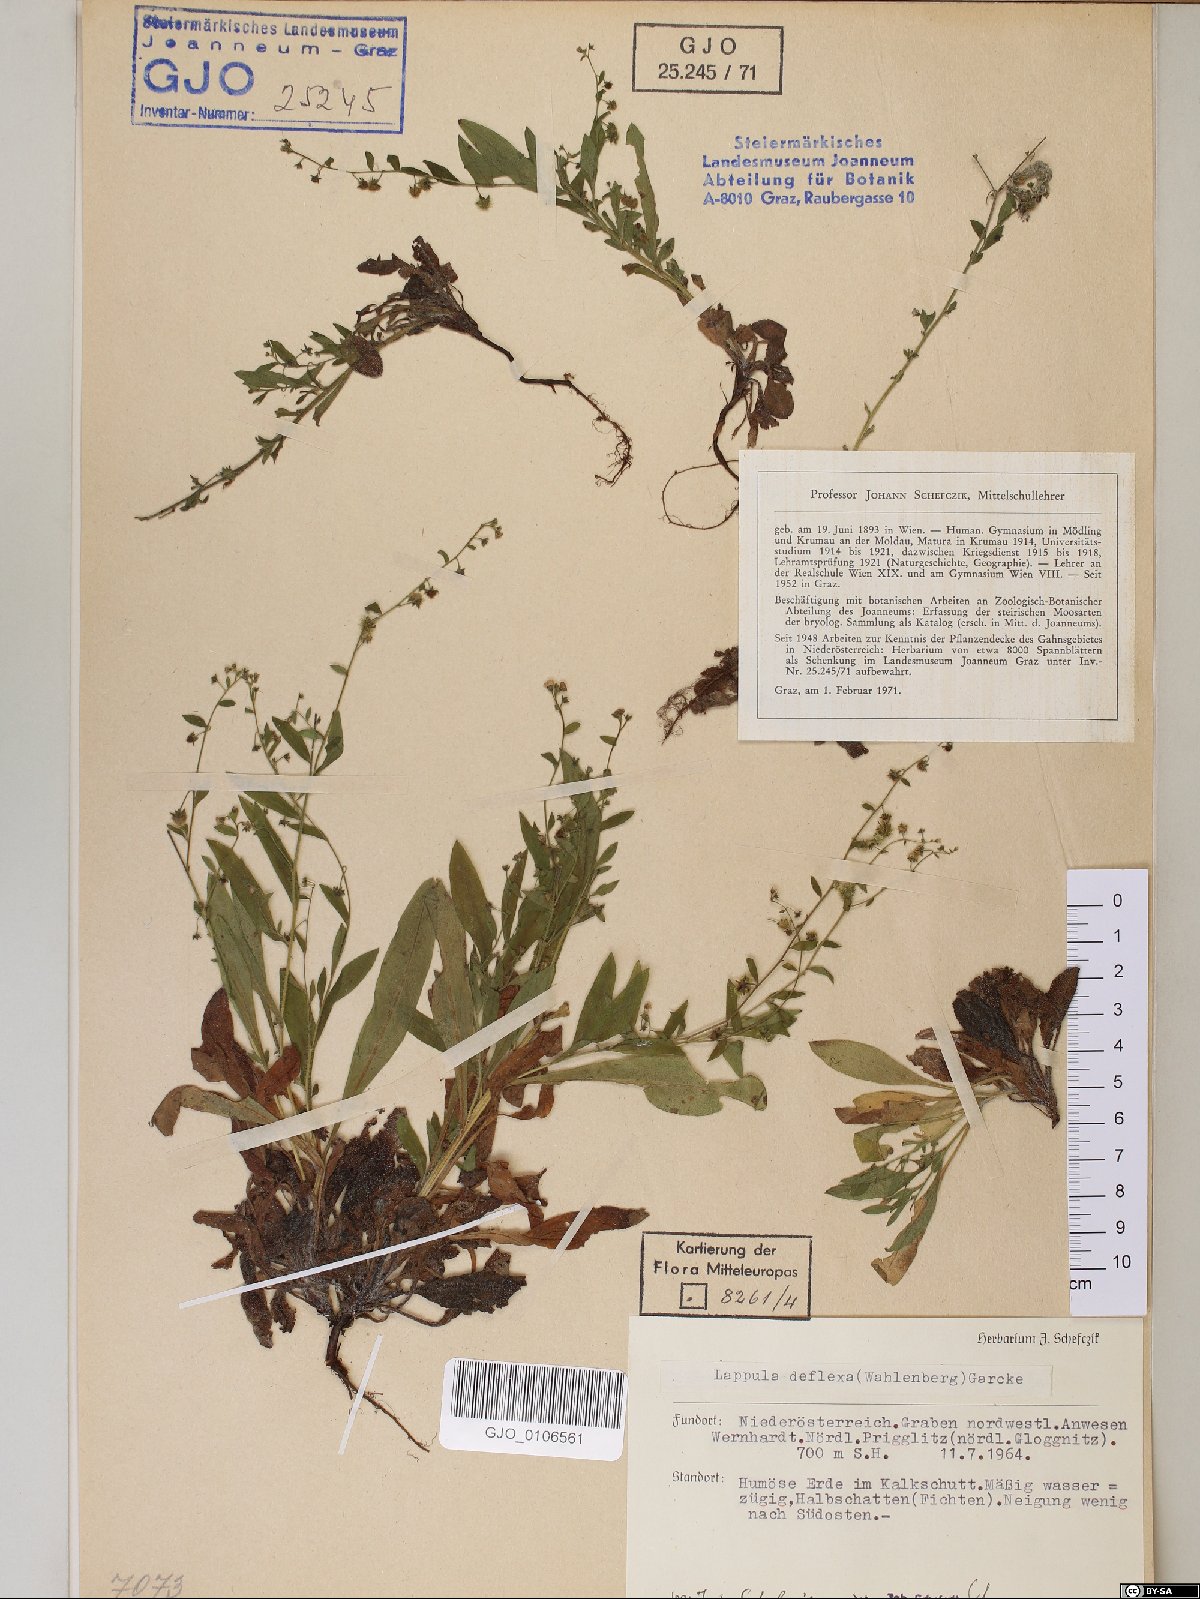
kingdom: Plantae
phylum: Tracheophyta
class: Magnoliopsida
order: Boraginales
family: Boraginaceae
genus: Hackelia
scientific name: Hackelia deflexa
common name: Nodding stickseed
